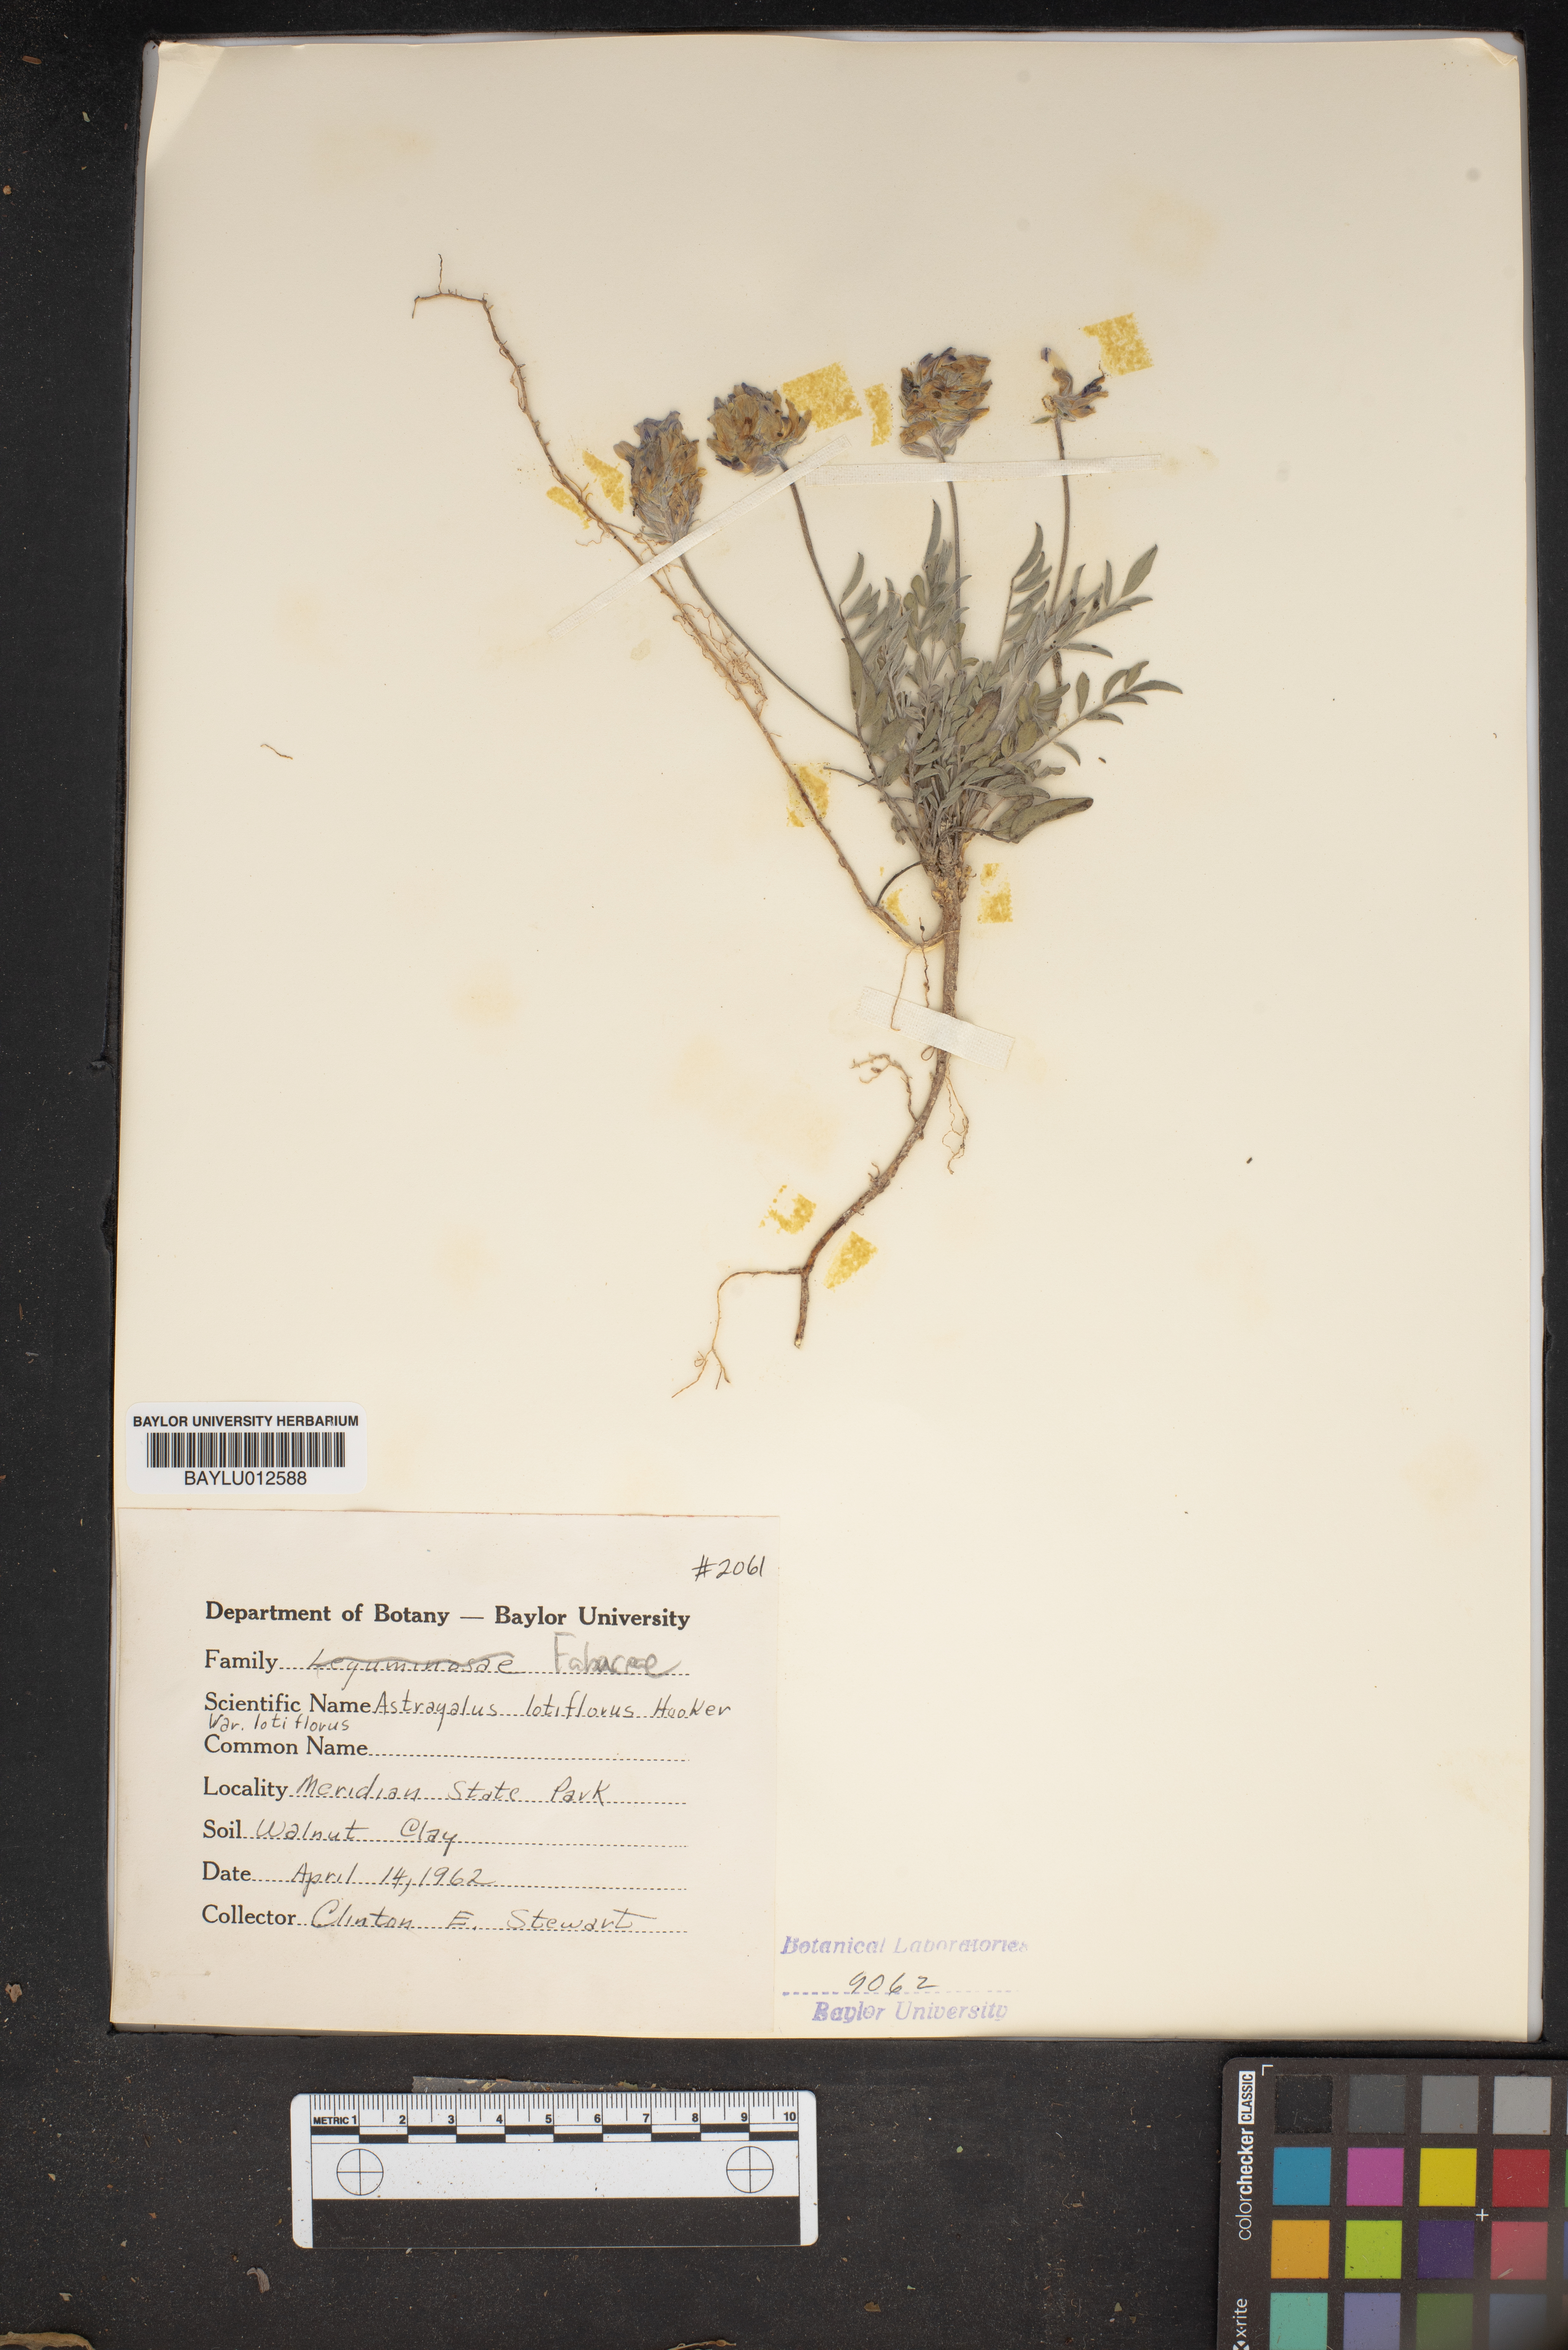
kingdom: Plantae
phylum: Tracheophyta
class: Magnoliopsida
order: Fabales
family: Fabaceae
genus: Astragalus
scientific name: Astragalus lotiflorus
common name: Lotus milk-vetch
